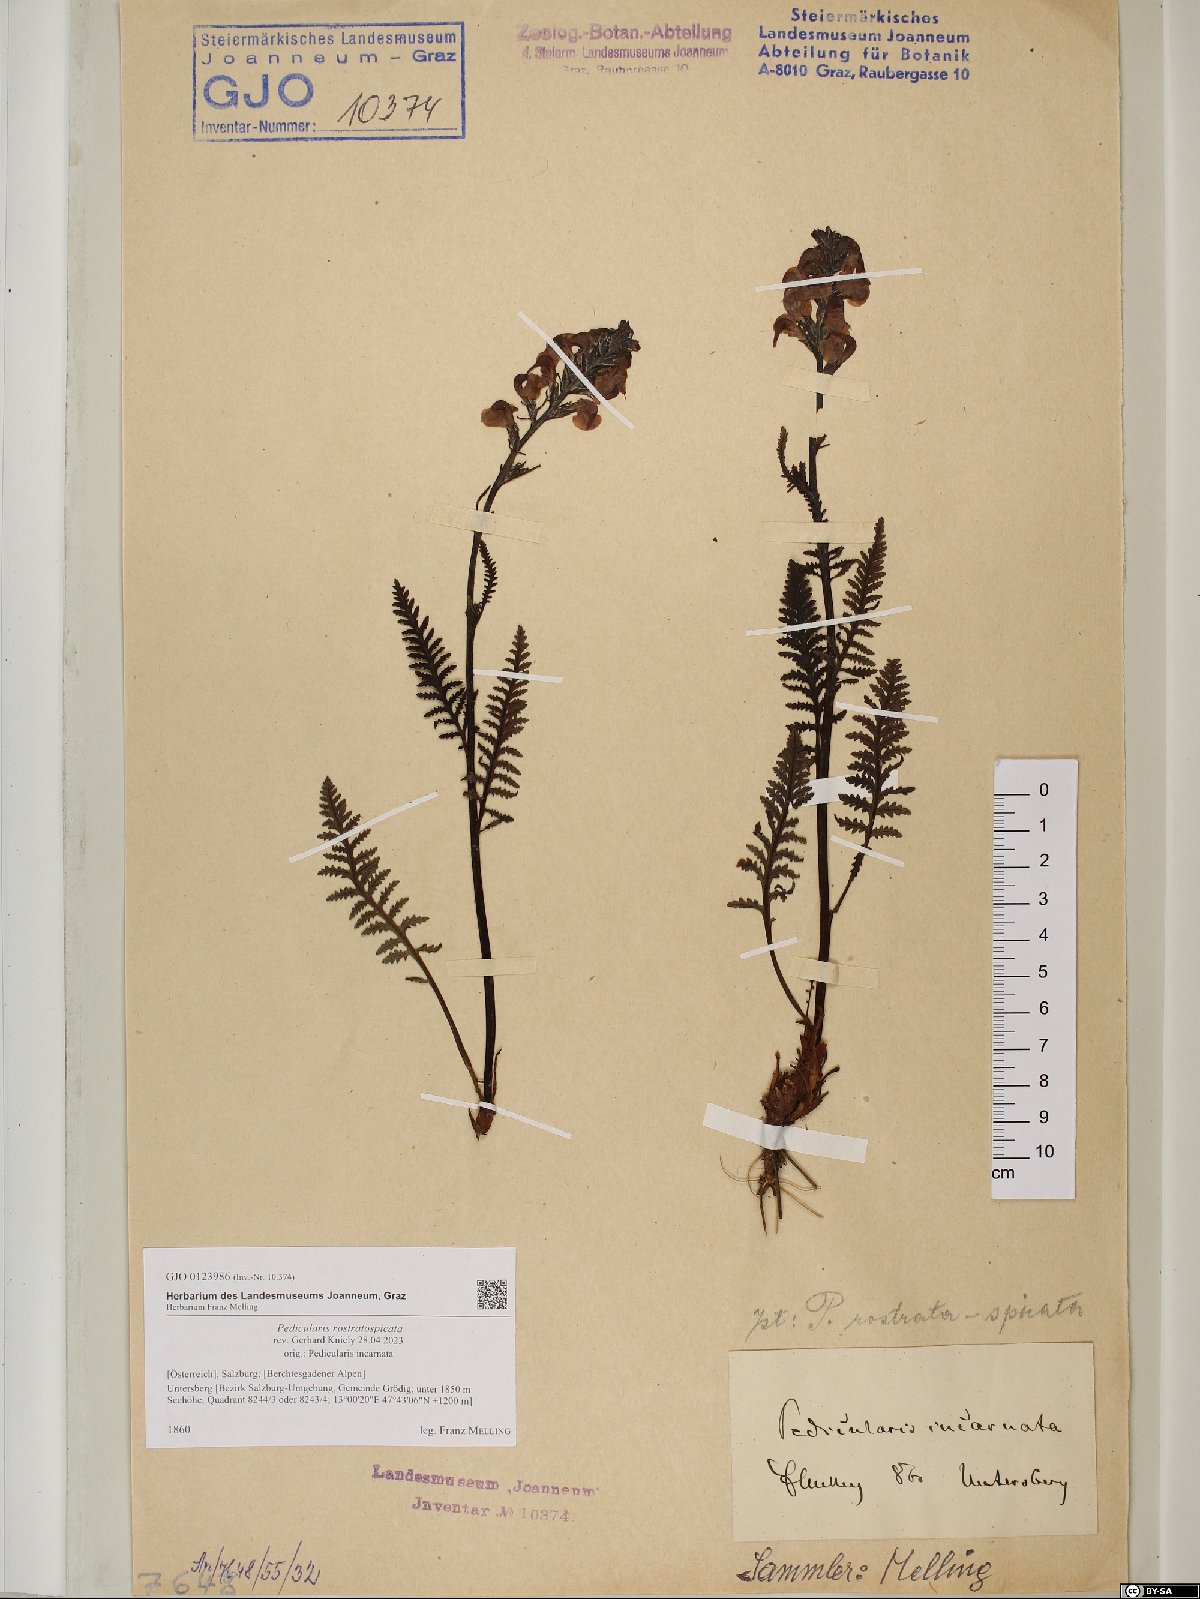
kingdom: Plantae
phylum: Tracheophyta
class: Magnoliopsida
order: Lamiales
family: Orobanchaceae
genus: Pedicularis
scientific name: Pedicularis rostratospicata
